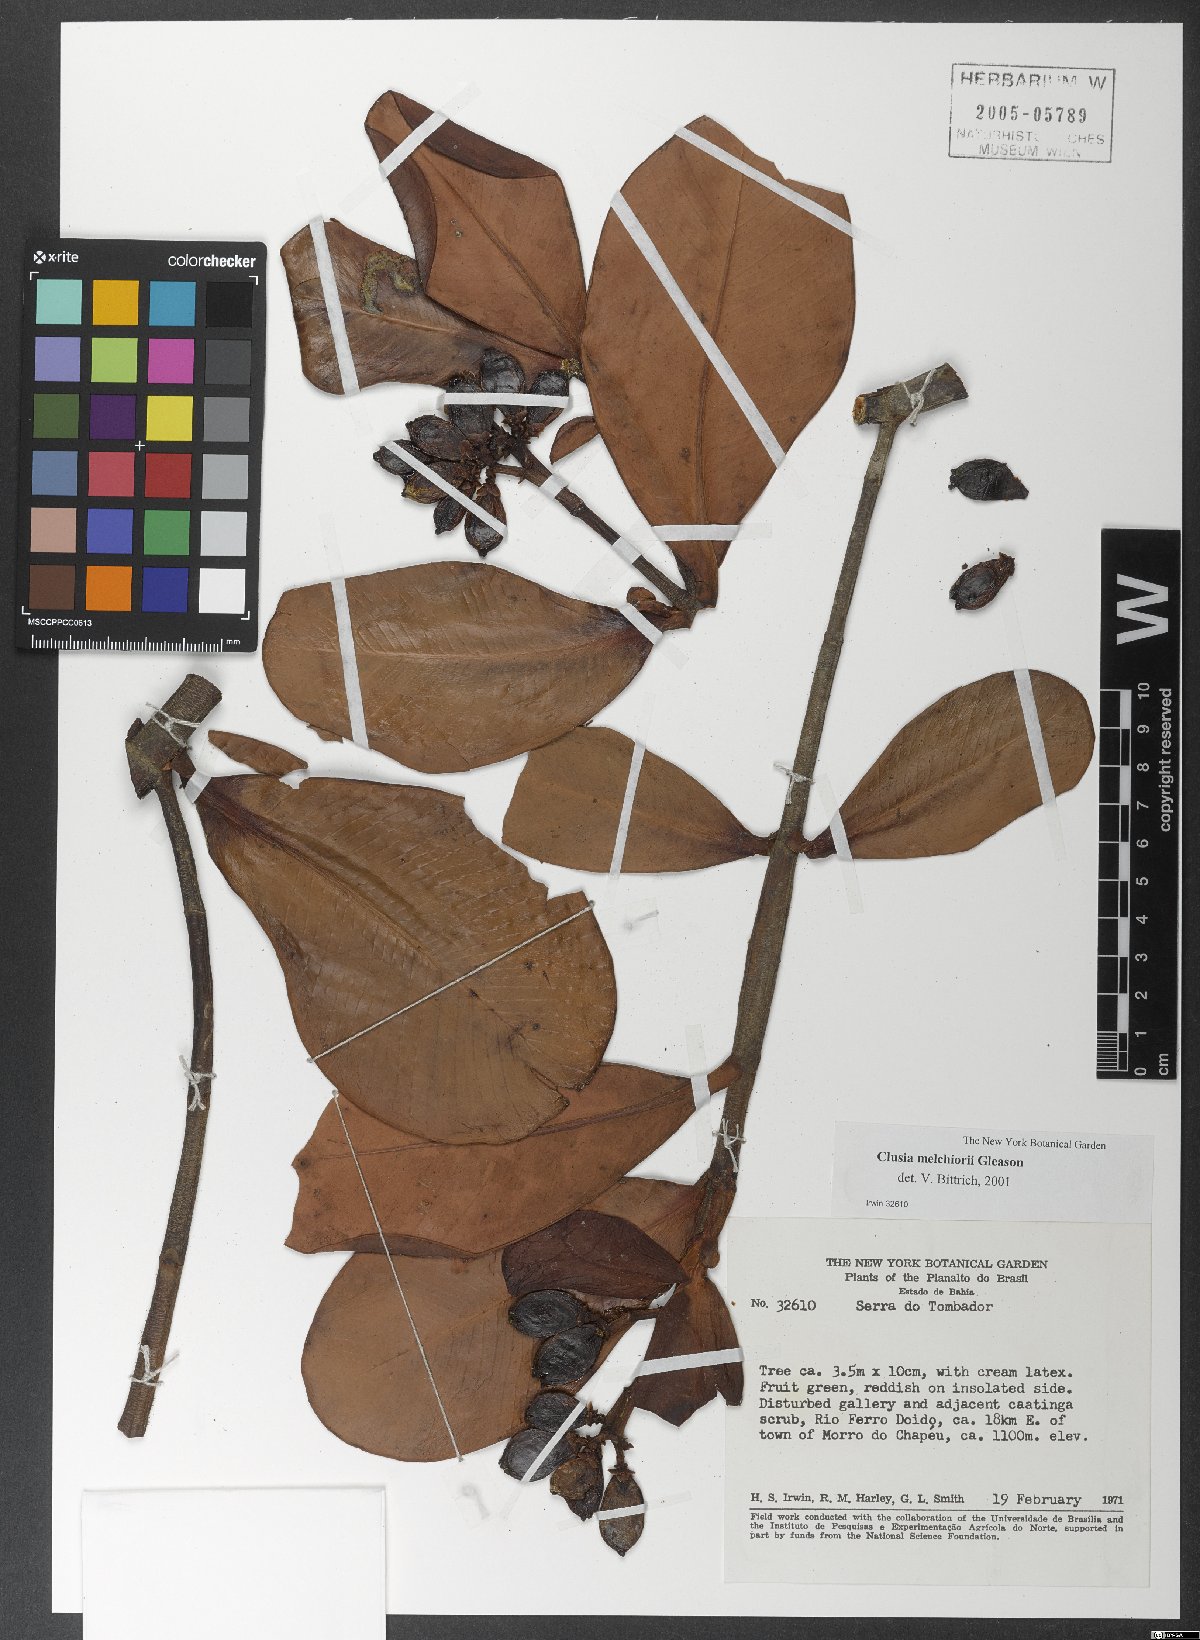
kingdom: Plantae
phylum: Tracheophyta
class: Magnoliopsida
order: Malpighiales
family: Clusiaceae
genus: Clusia
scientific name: Clusia melchiorii
